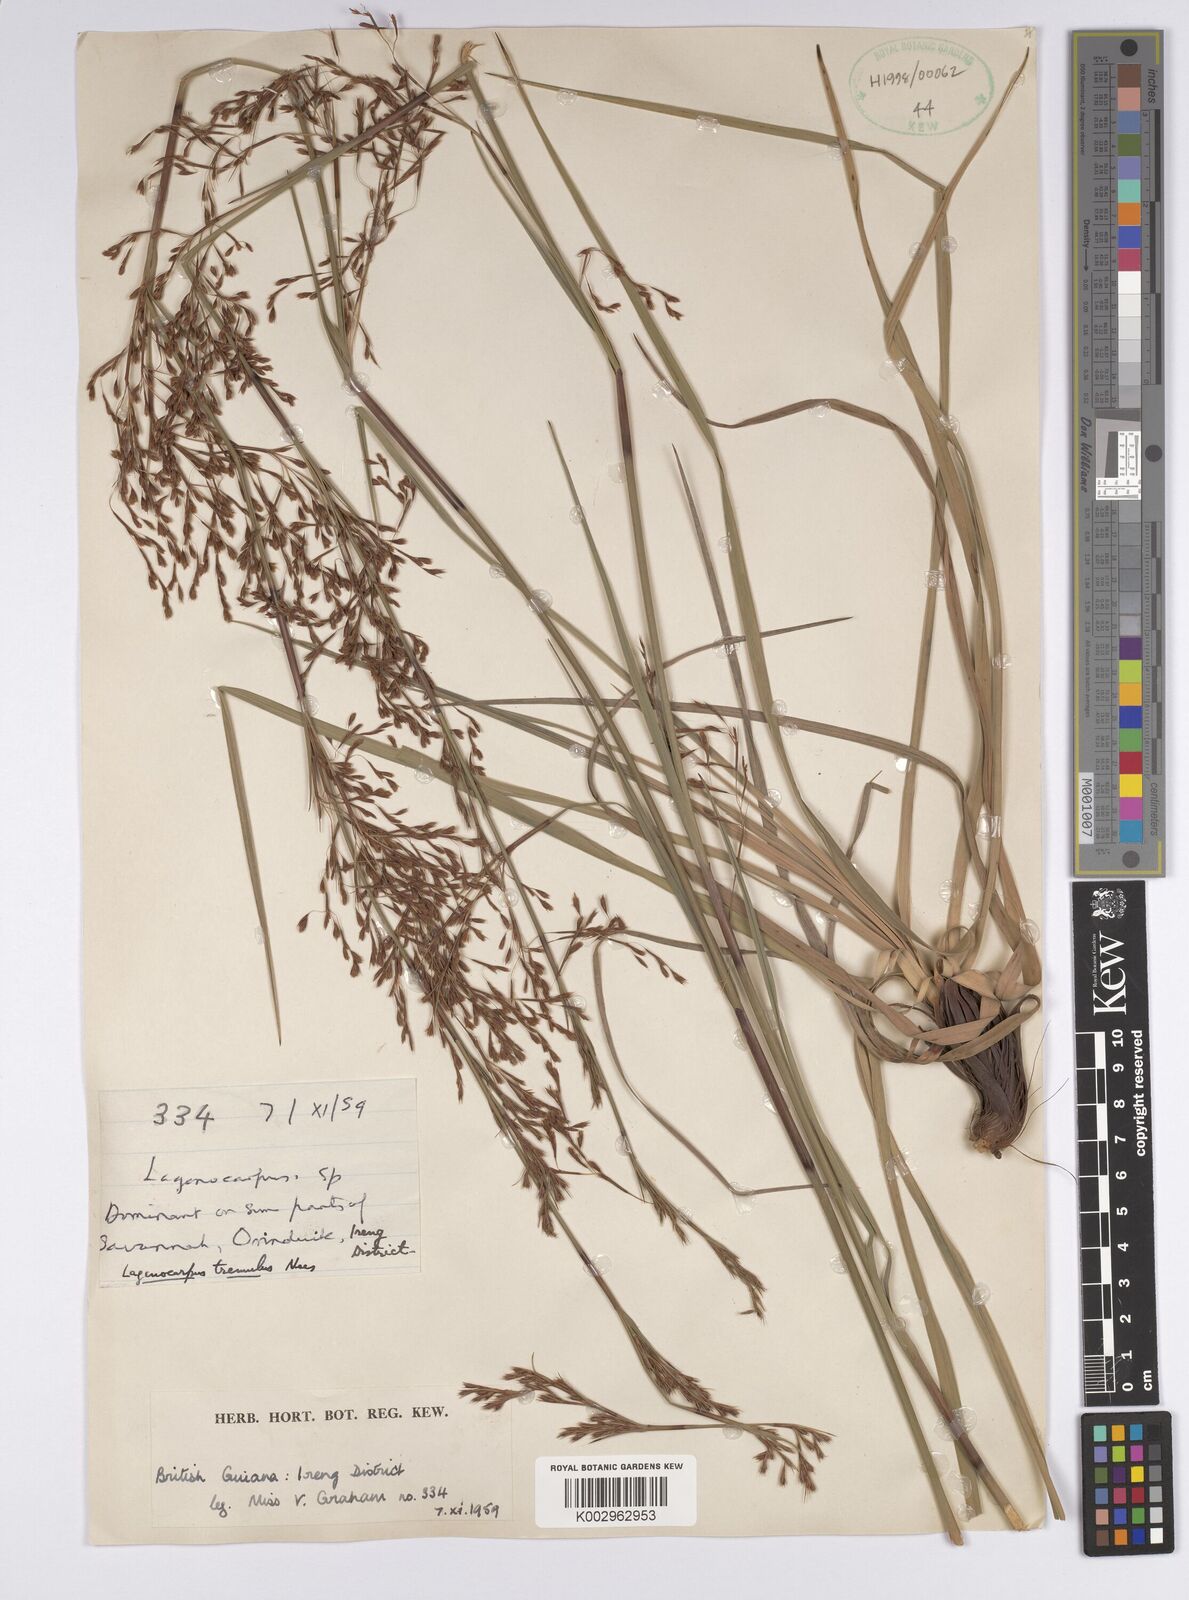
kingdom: Plantae
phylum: Tracheophyta
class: Liliopsida
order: Poales
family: Cyperaceae
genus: Lagenocarpus
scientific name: Lagenocarpus rigidus
